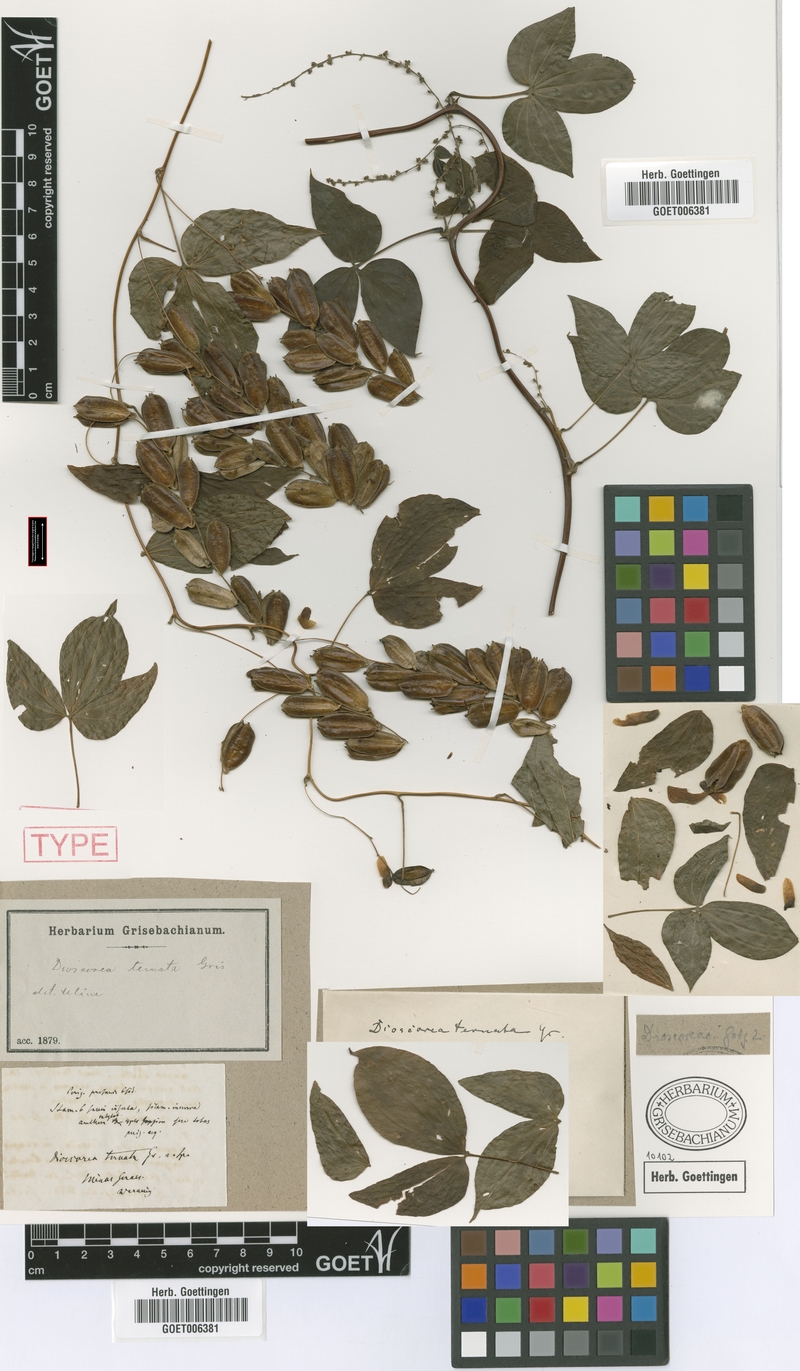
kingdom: Plantae
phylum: Tracheophyta
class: Liliopsida
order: Dioscoreales
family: Dioscoreaceae
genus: Dioscorea
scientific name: Dioscorea ternata
